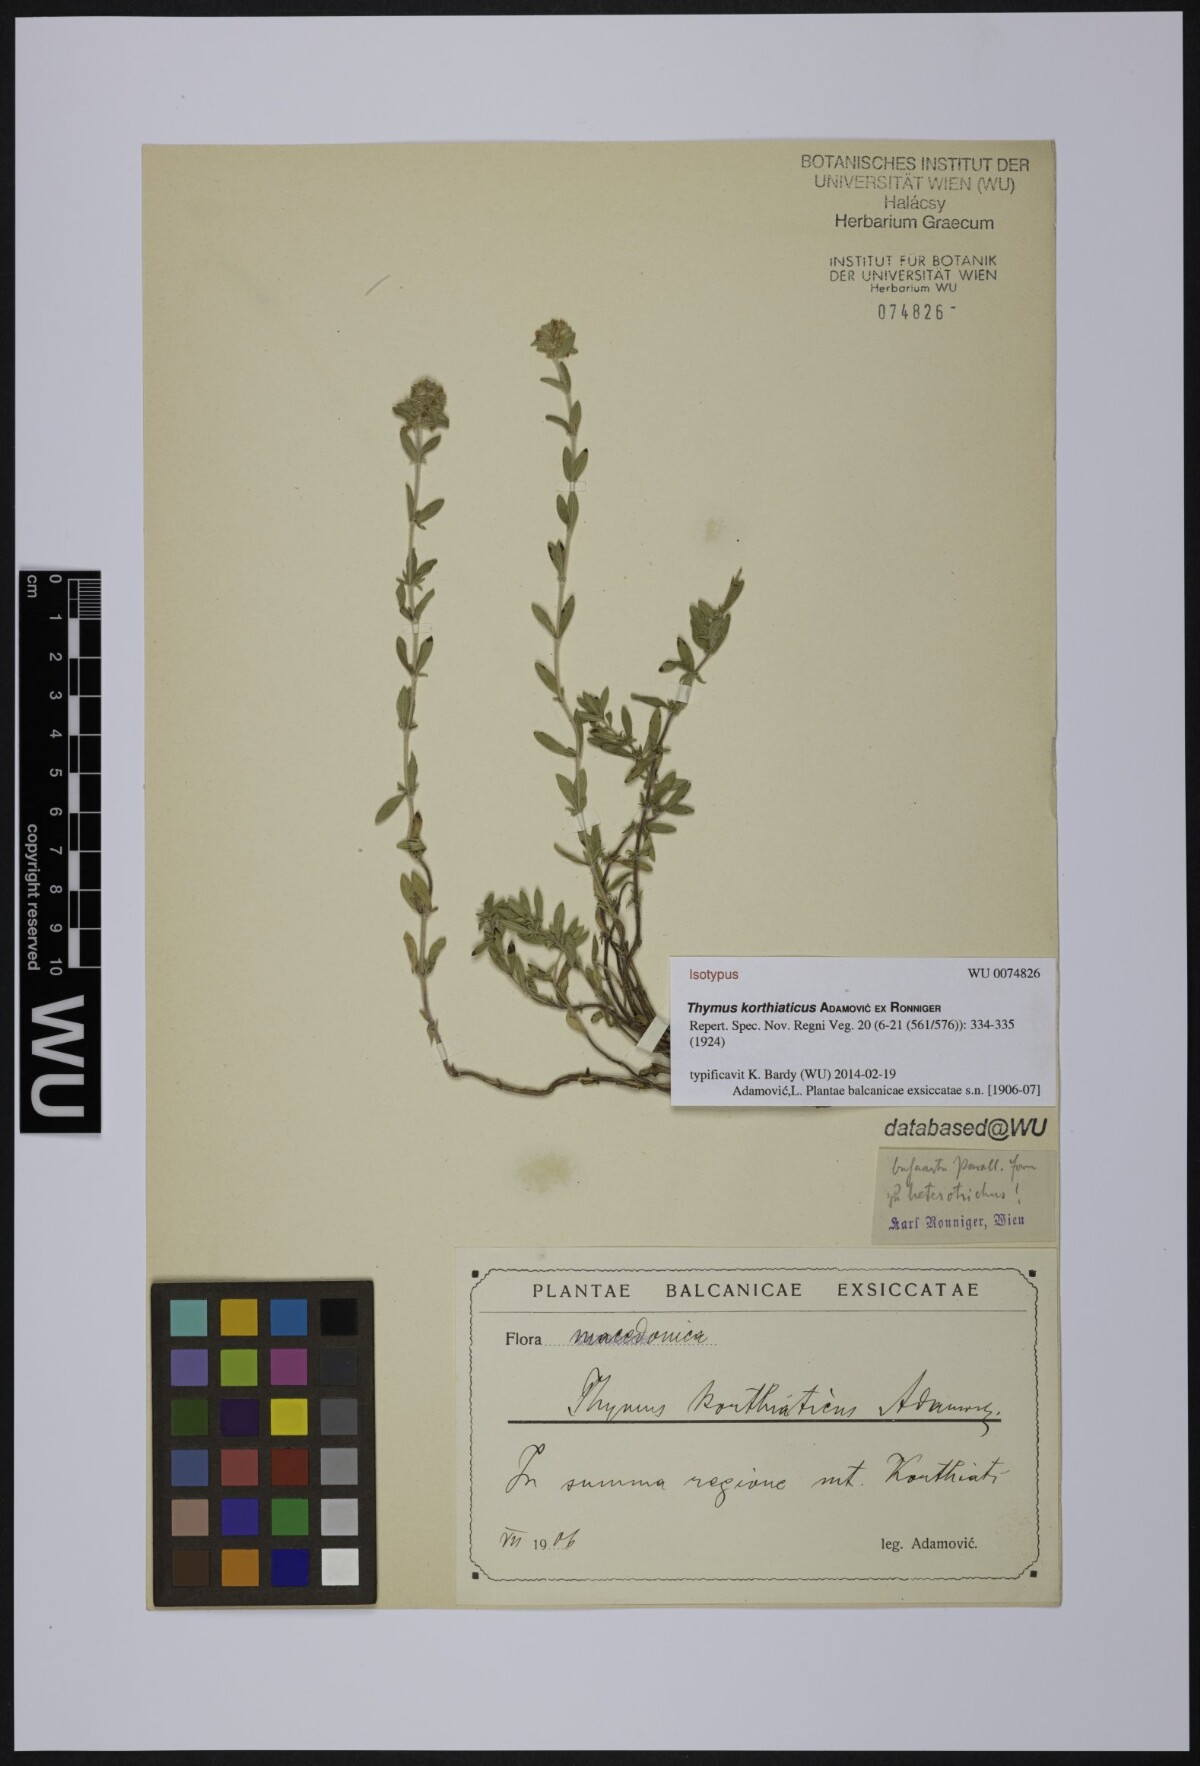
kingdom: Plantae
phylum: Tracheophyta
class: Magnoliopsida
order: Lamiales
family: Lamiaceae
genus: Thymus
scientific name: Thymus sibthorpii
